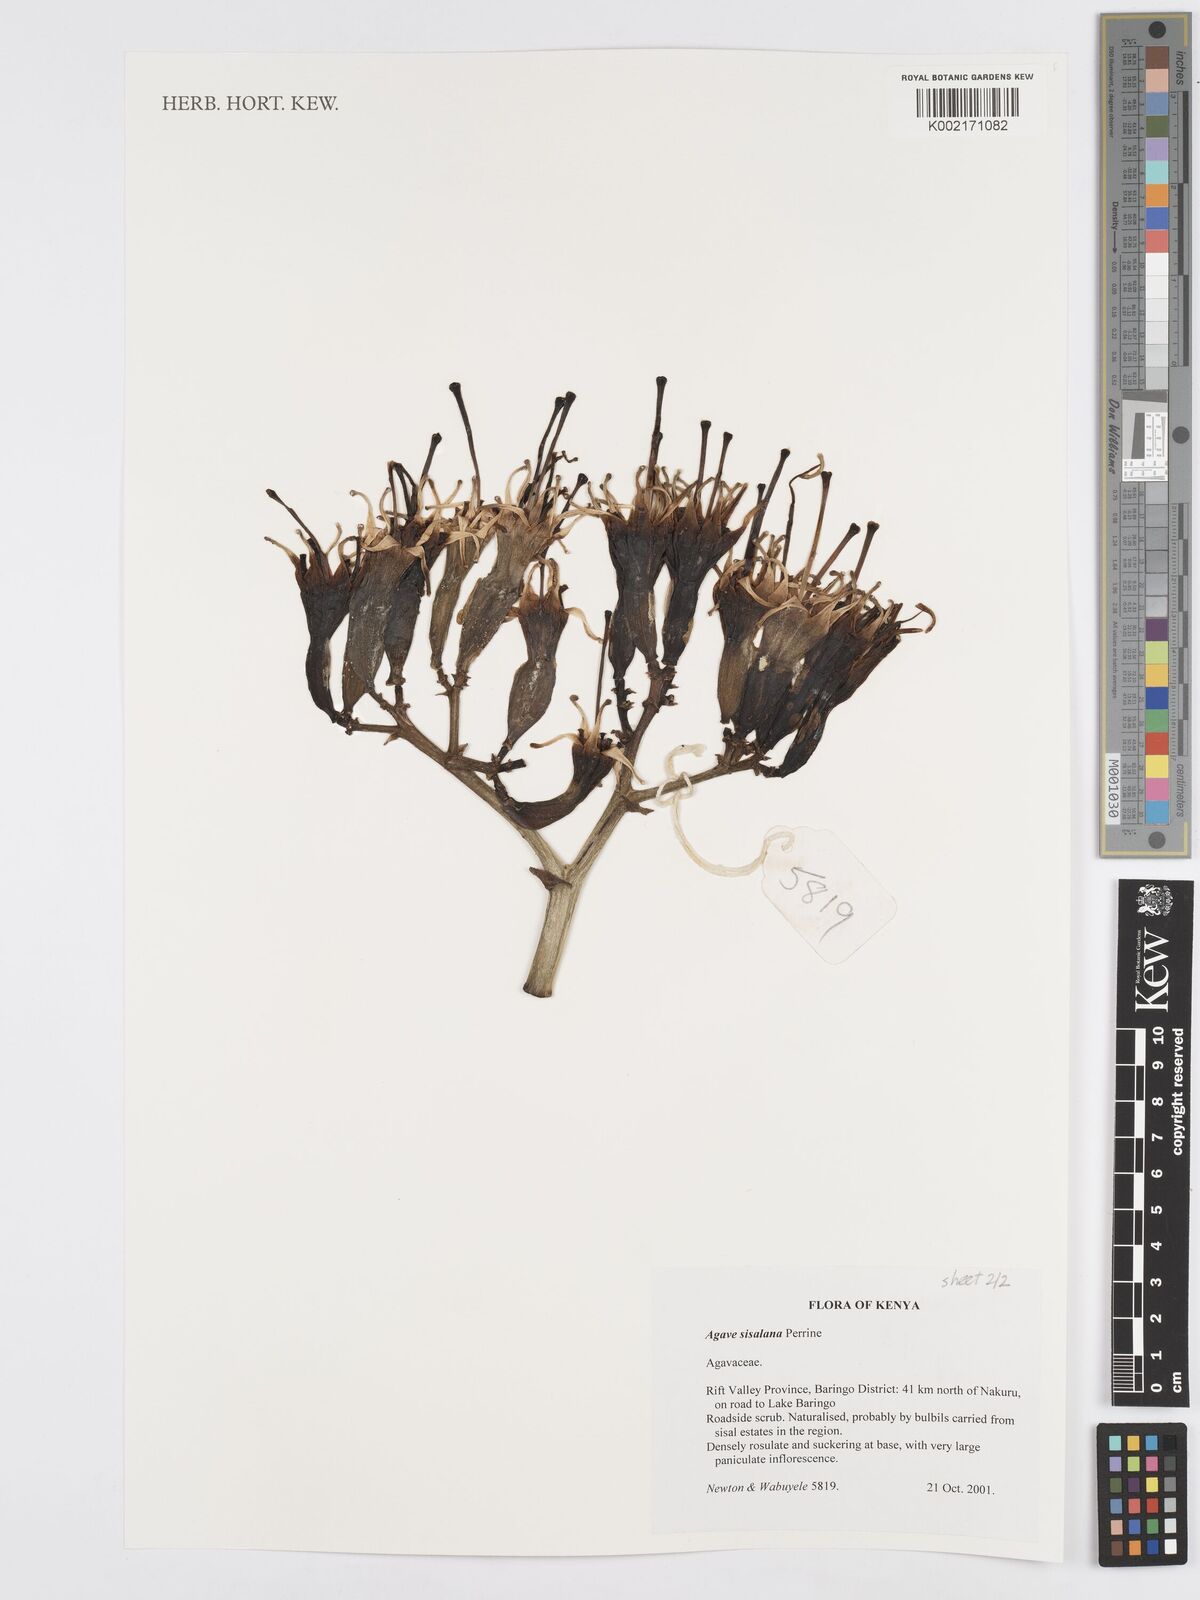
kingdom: Plantae
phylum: Tracheophyta
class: Liliopsida
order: Asparagales
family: Asparagaceae
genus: Agave
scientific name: Agave sisalana
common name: Sisal hemp
